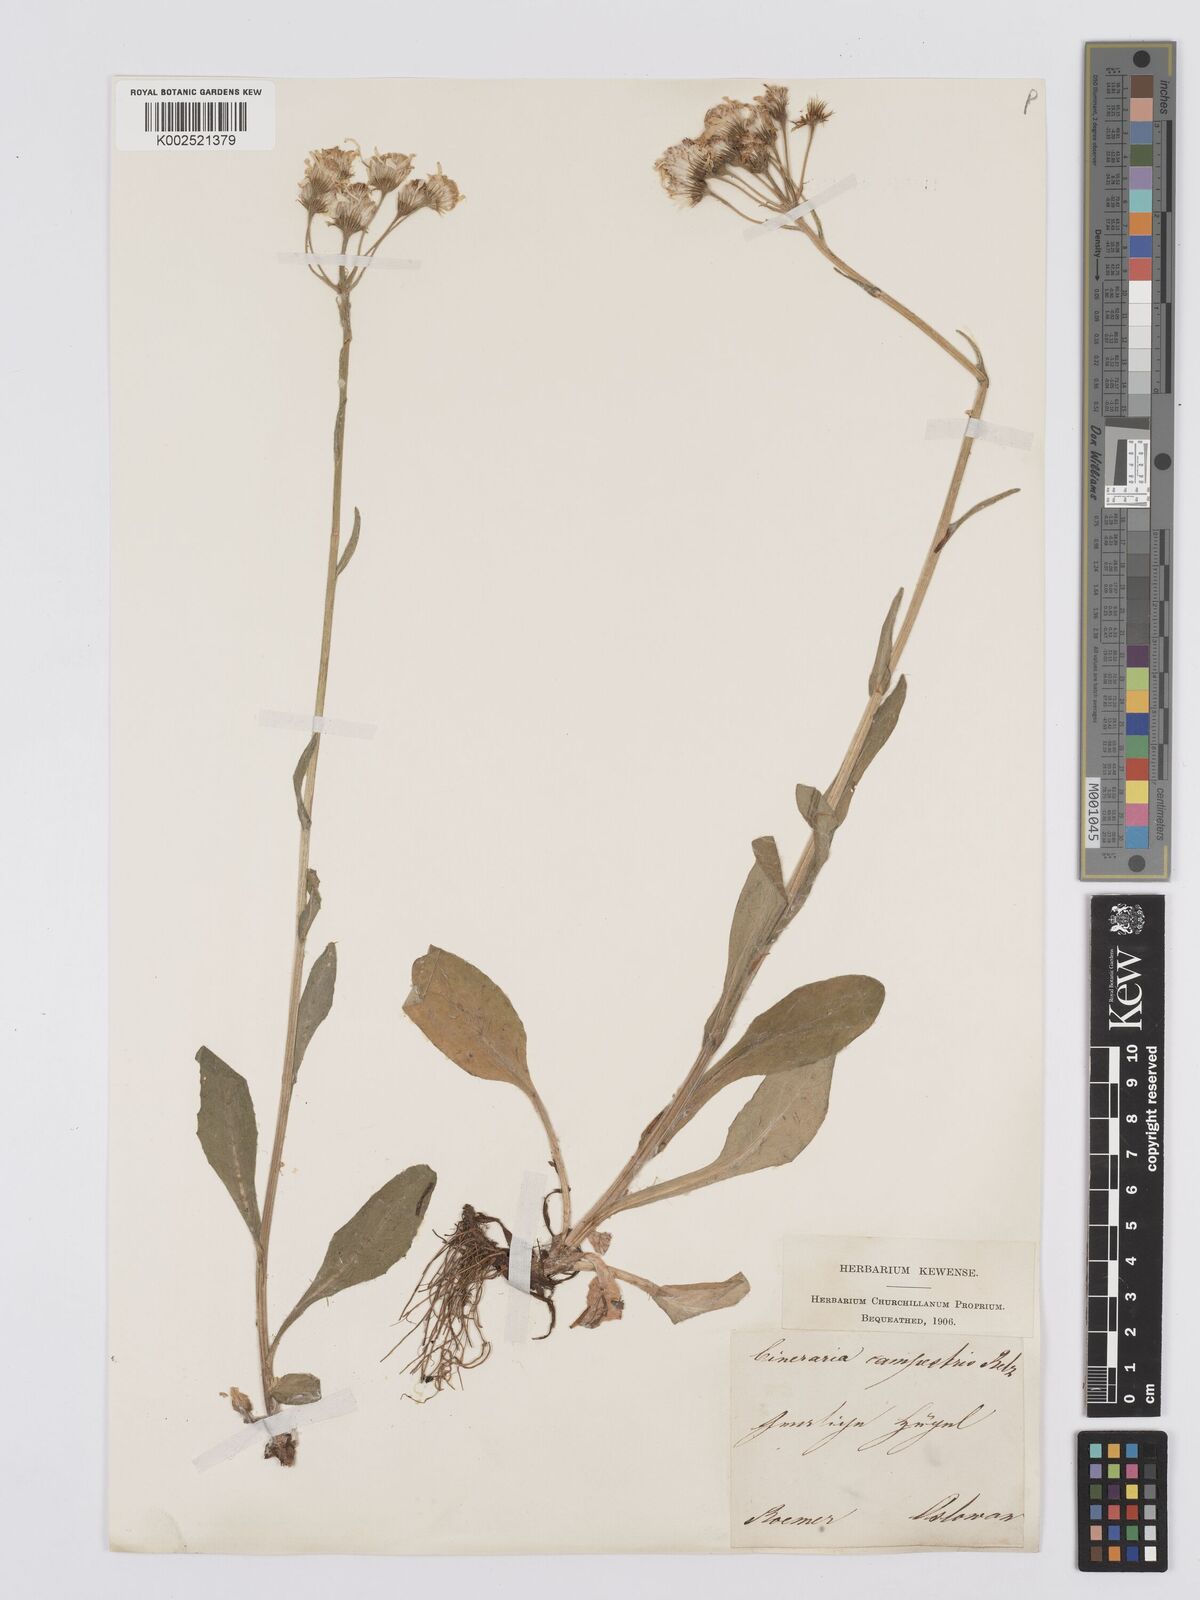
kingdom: Plantae
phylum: Tracheophyta
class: Magnoliopsida
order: Asterales
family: Asteraceae
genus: Tephroseris
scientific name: Tephroseris helenitis
